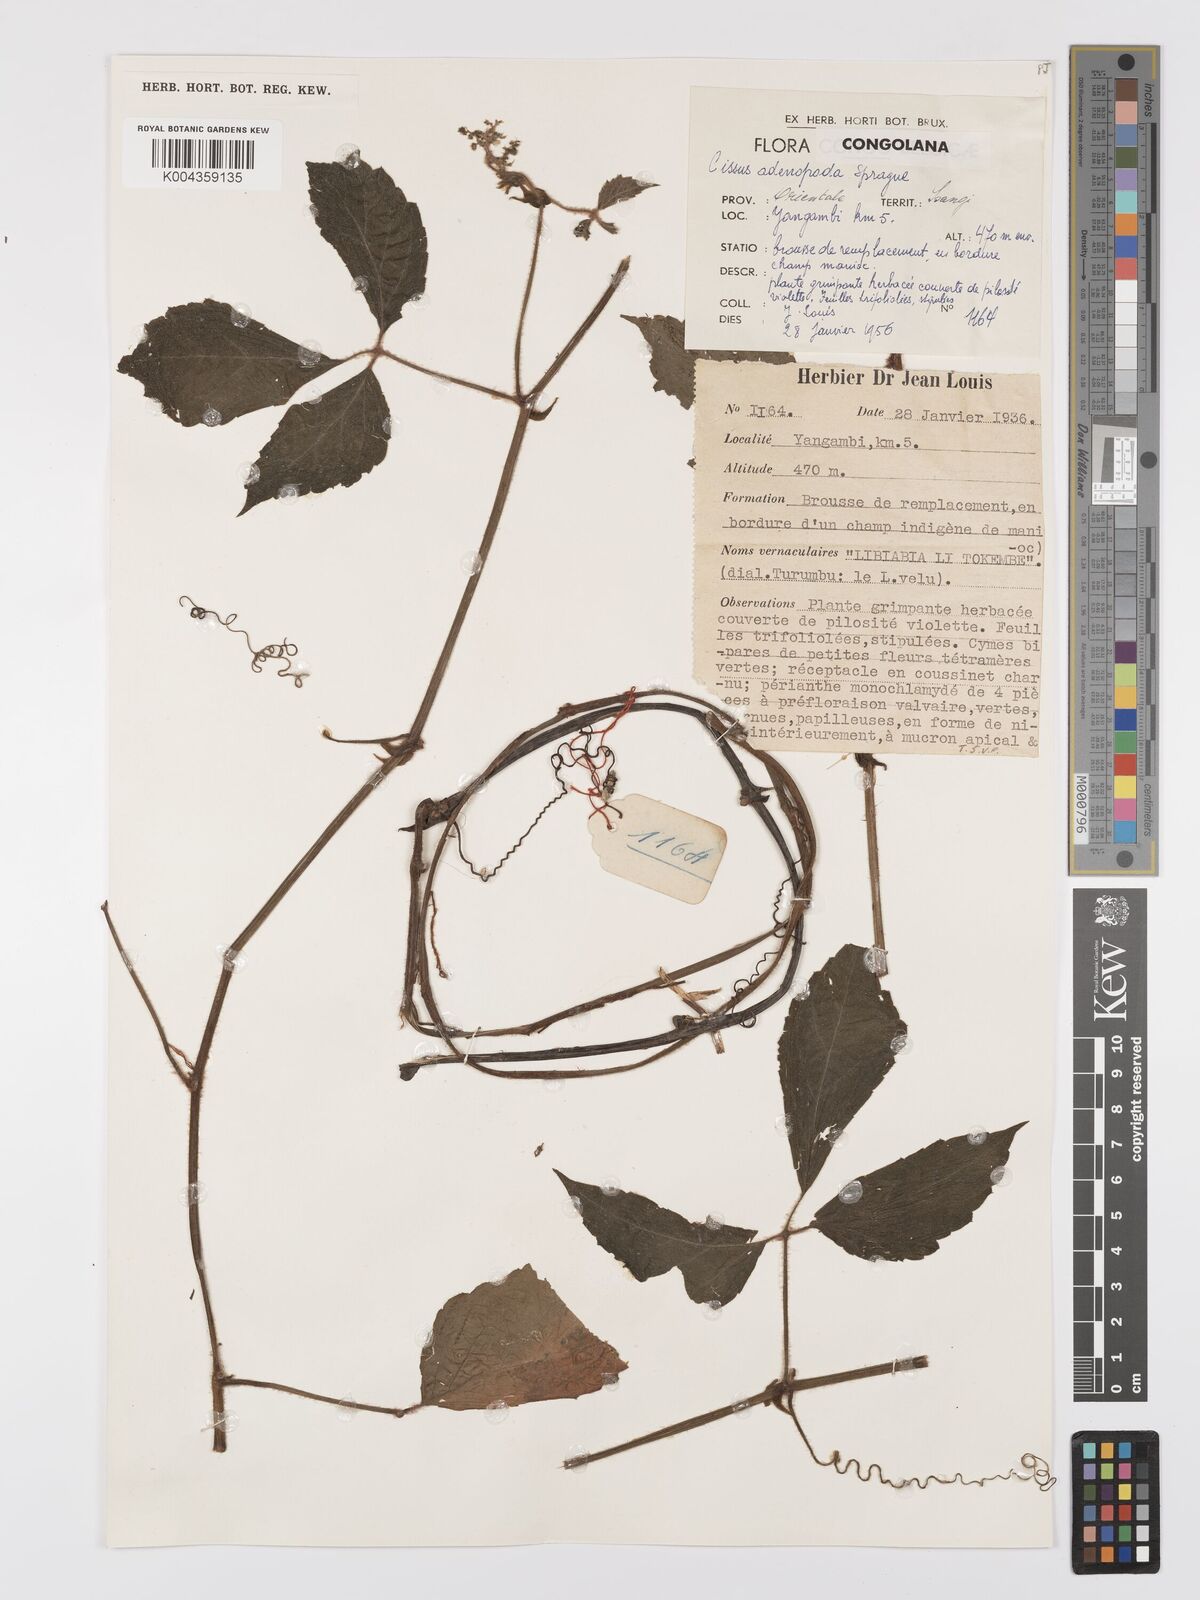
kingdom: Plantae
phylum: Tracheophyta
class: Magnoliopsida
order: Vitales
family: Vitaceae
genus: Cyphostemma
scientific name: Cyphostemma adenopodum
